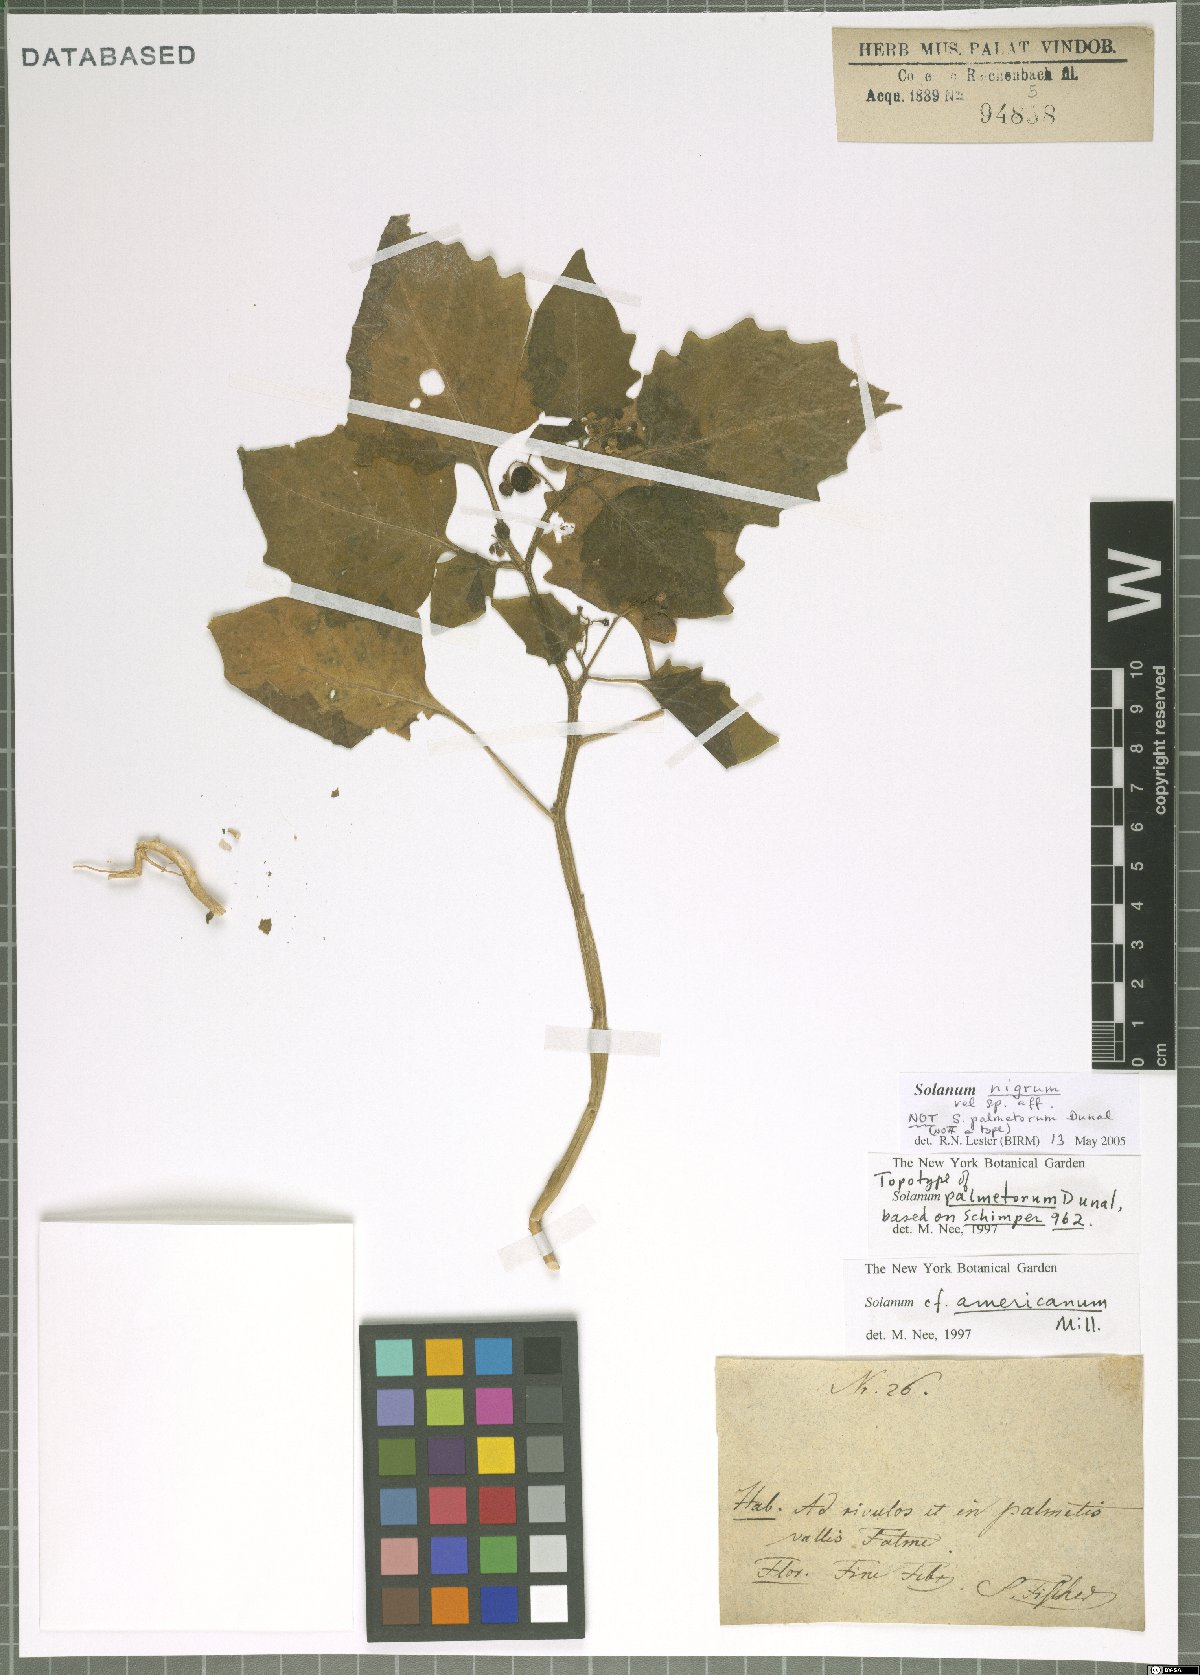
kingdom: Plantae
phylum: Tracheophyta
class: Magnoliopsida
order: Solanales
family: Solanaceae
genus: Solanum
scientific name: Solanum nigrum
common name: Black nightshade
